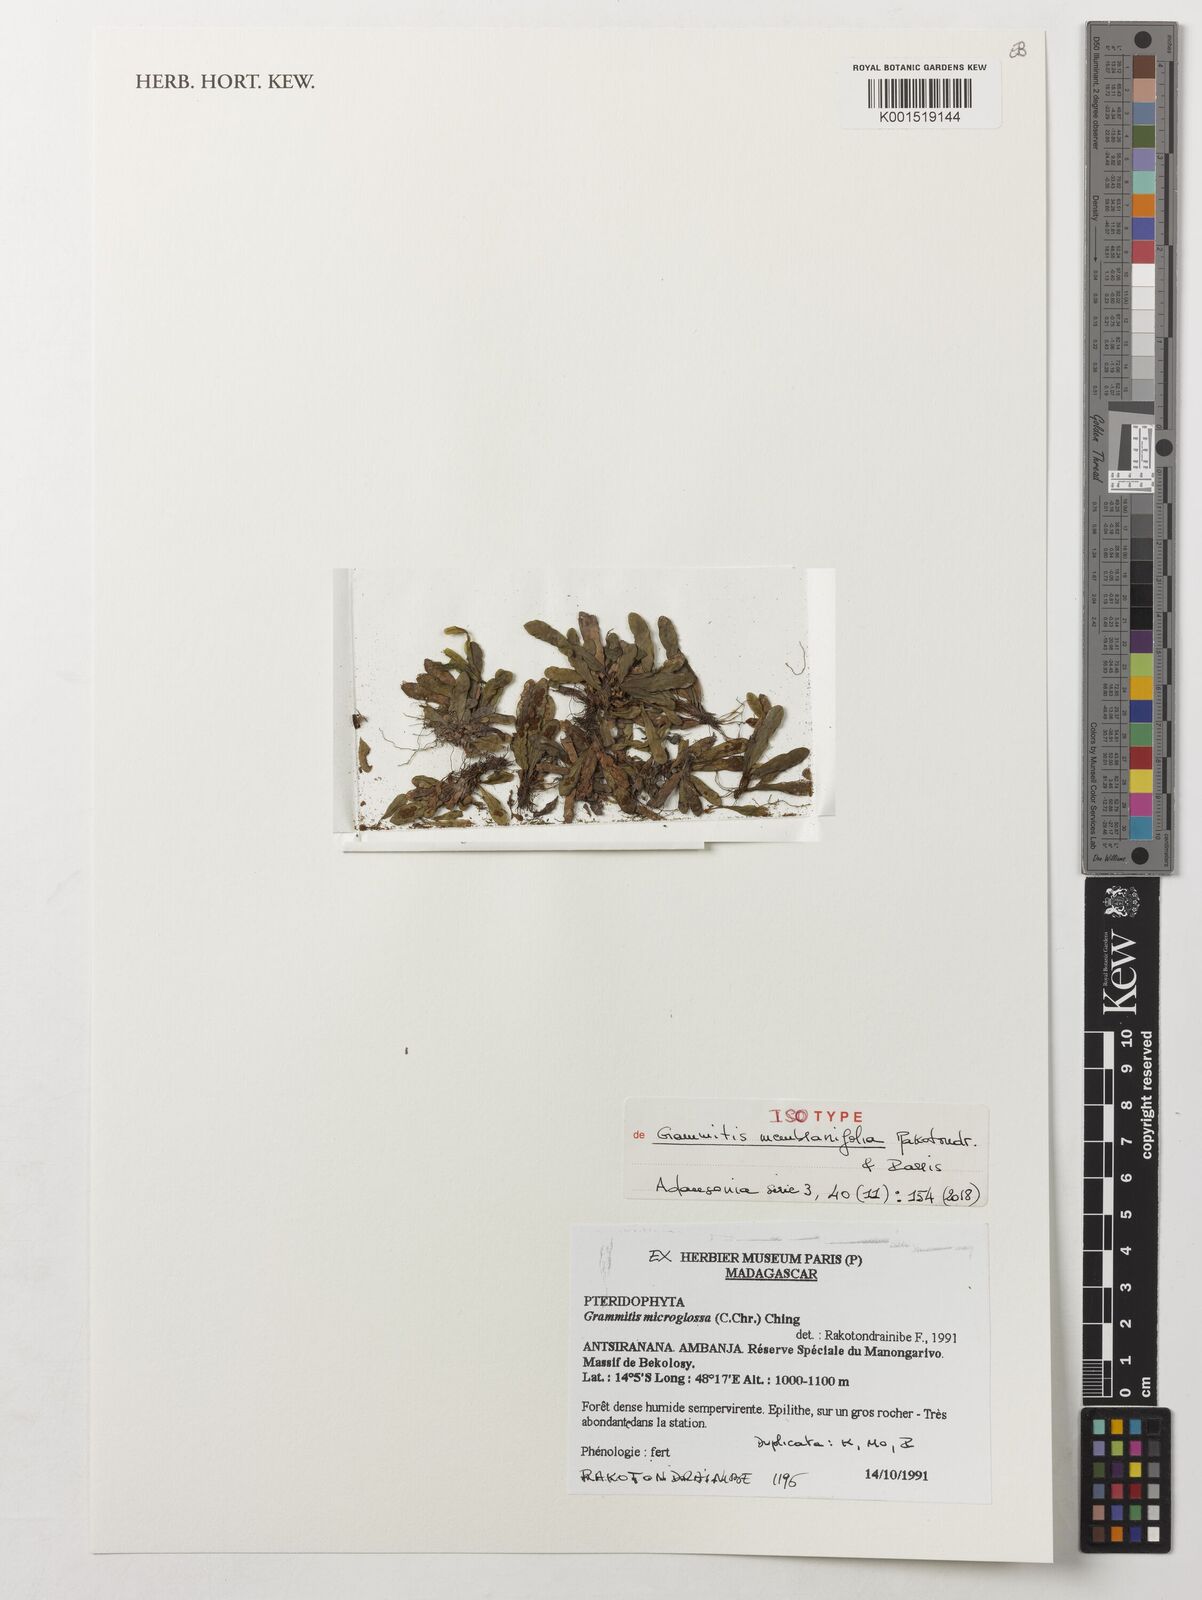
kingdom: Plantae
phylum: Tracheophyta
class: Polypodiopsida
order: Polypodiales
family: Polypodiaceae
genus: Grammitis
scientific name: Grammitis membranifolia
